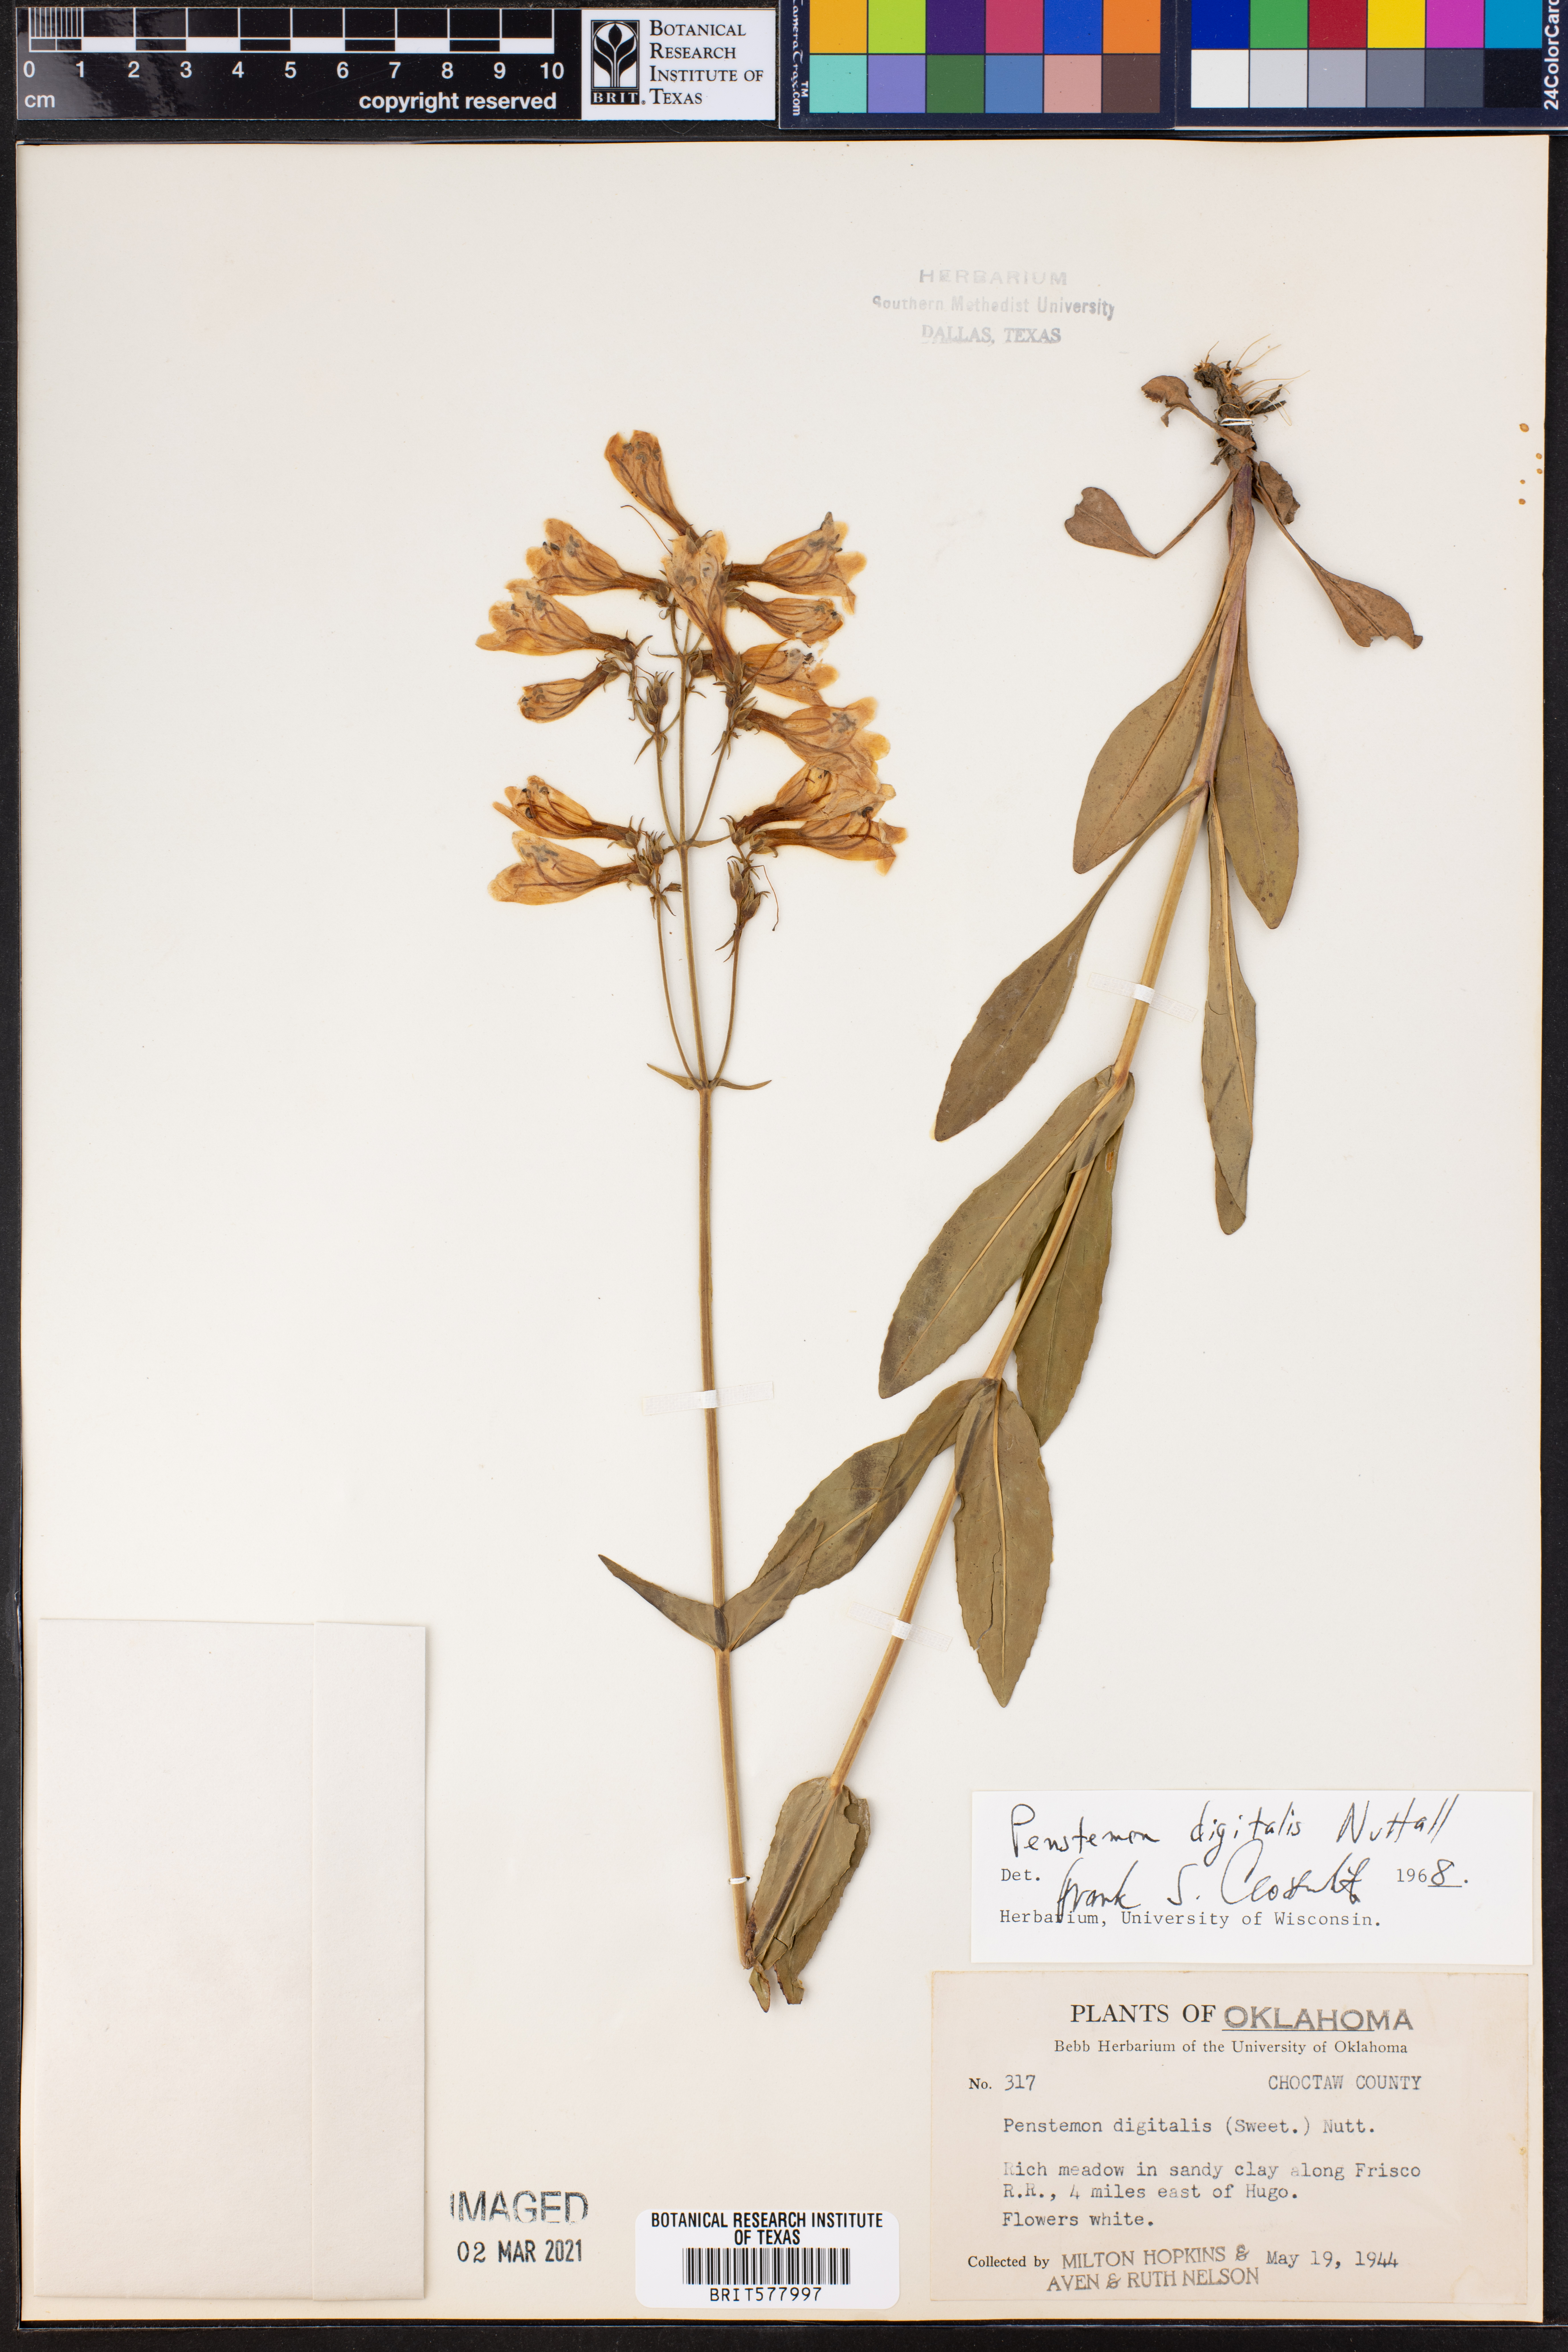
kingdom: Plantae
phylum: Tracheophyta
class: Magnoliopsida
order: Lamiales
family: Plantaginaceae
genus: Penstemon
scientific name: Penstemon digitalis
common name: Foxglove beardtongue
